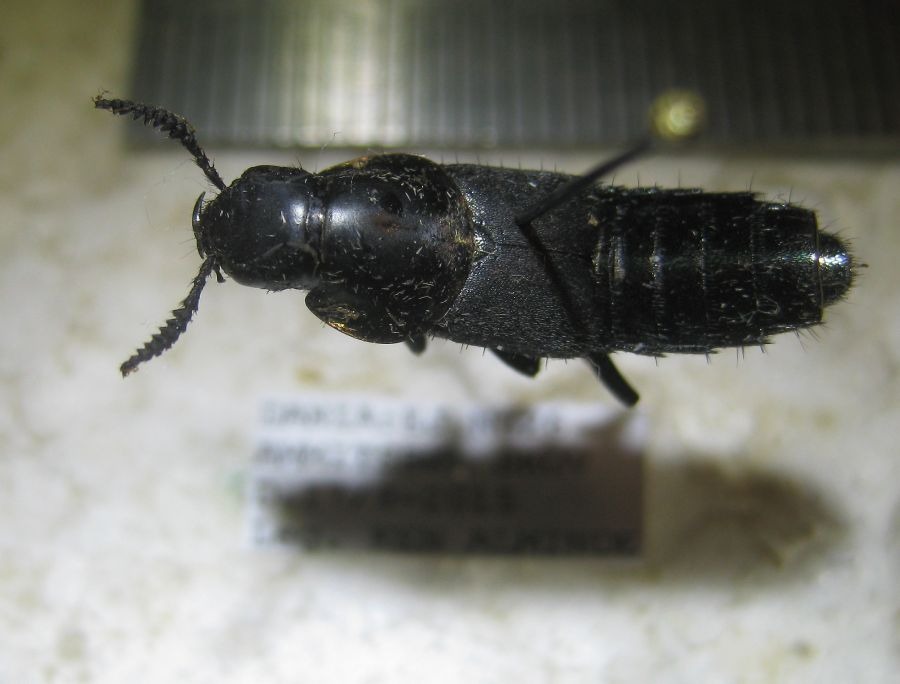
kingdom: Animalia
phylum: Arthropoda
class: Insecta
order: Coleoptera
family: Staphylinidae
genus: Quedius
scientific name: Quedius dilatatus
